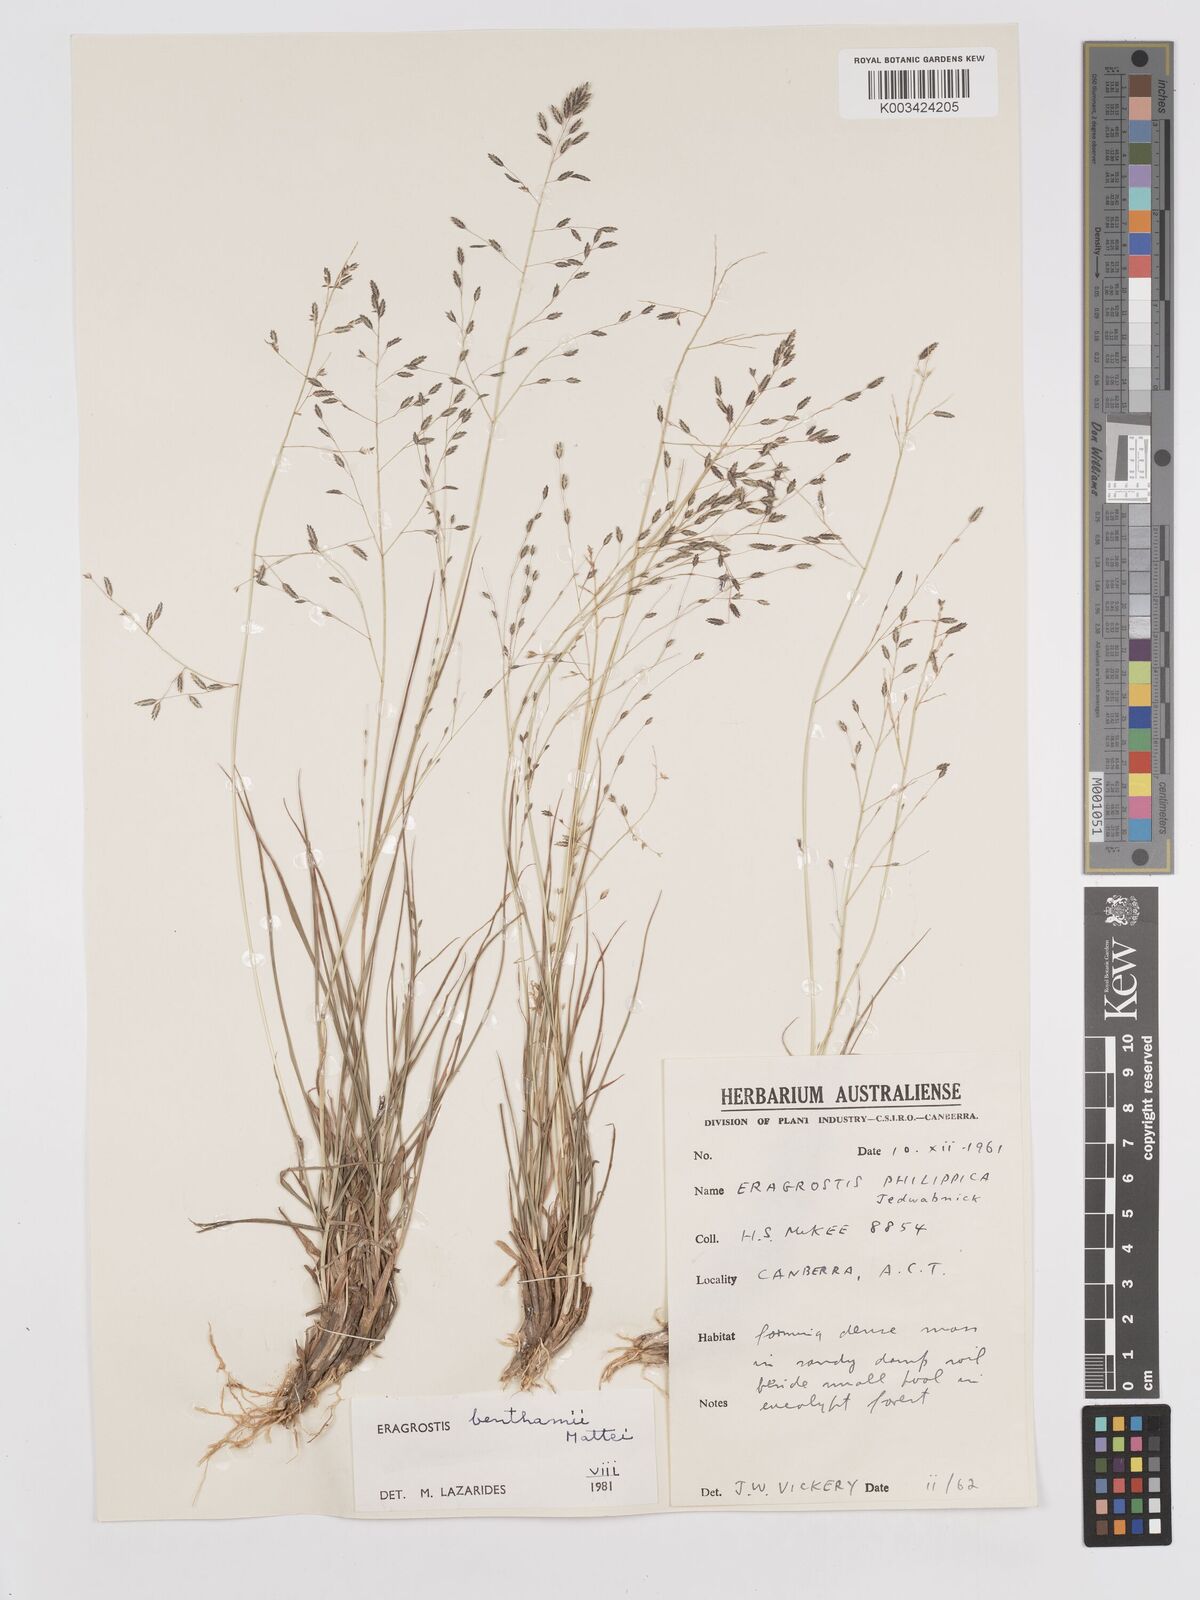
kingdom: Plantae
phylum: Tracheophyta
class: Liliopsida
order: Poales
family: Poaceae
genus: Eragrostis
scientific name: Eragrostis brownii
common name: Lovegrass
